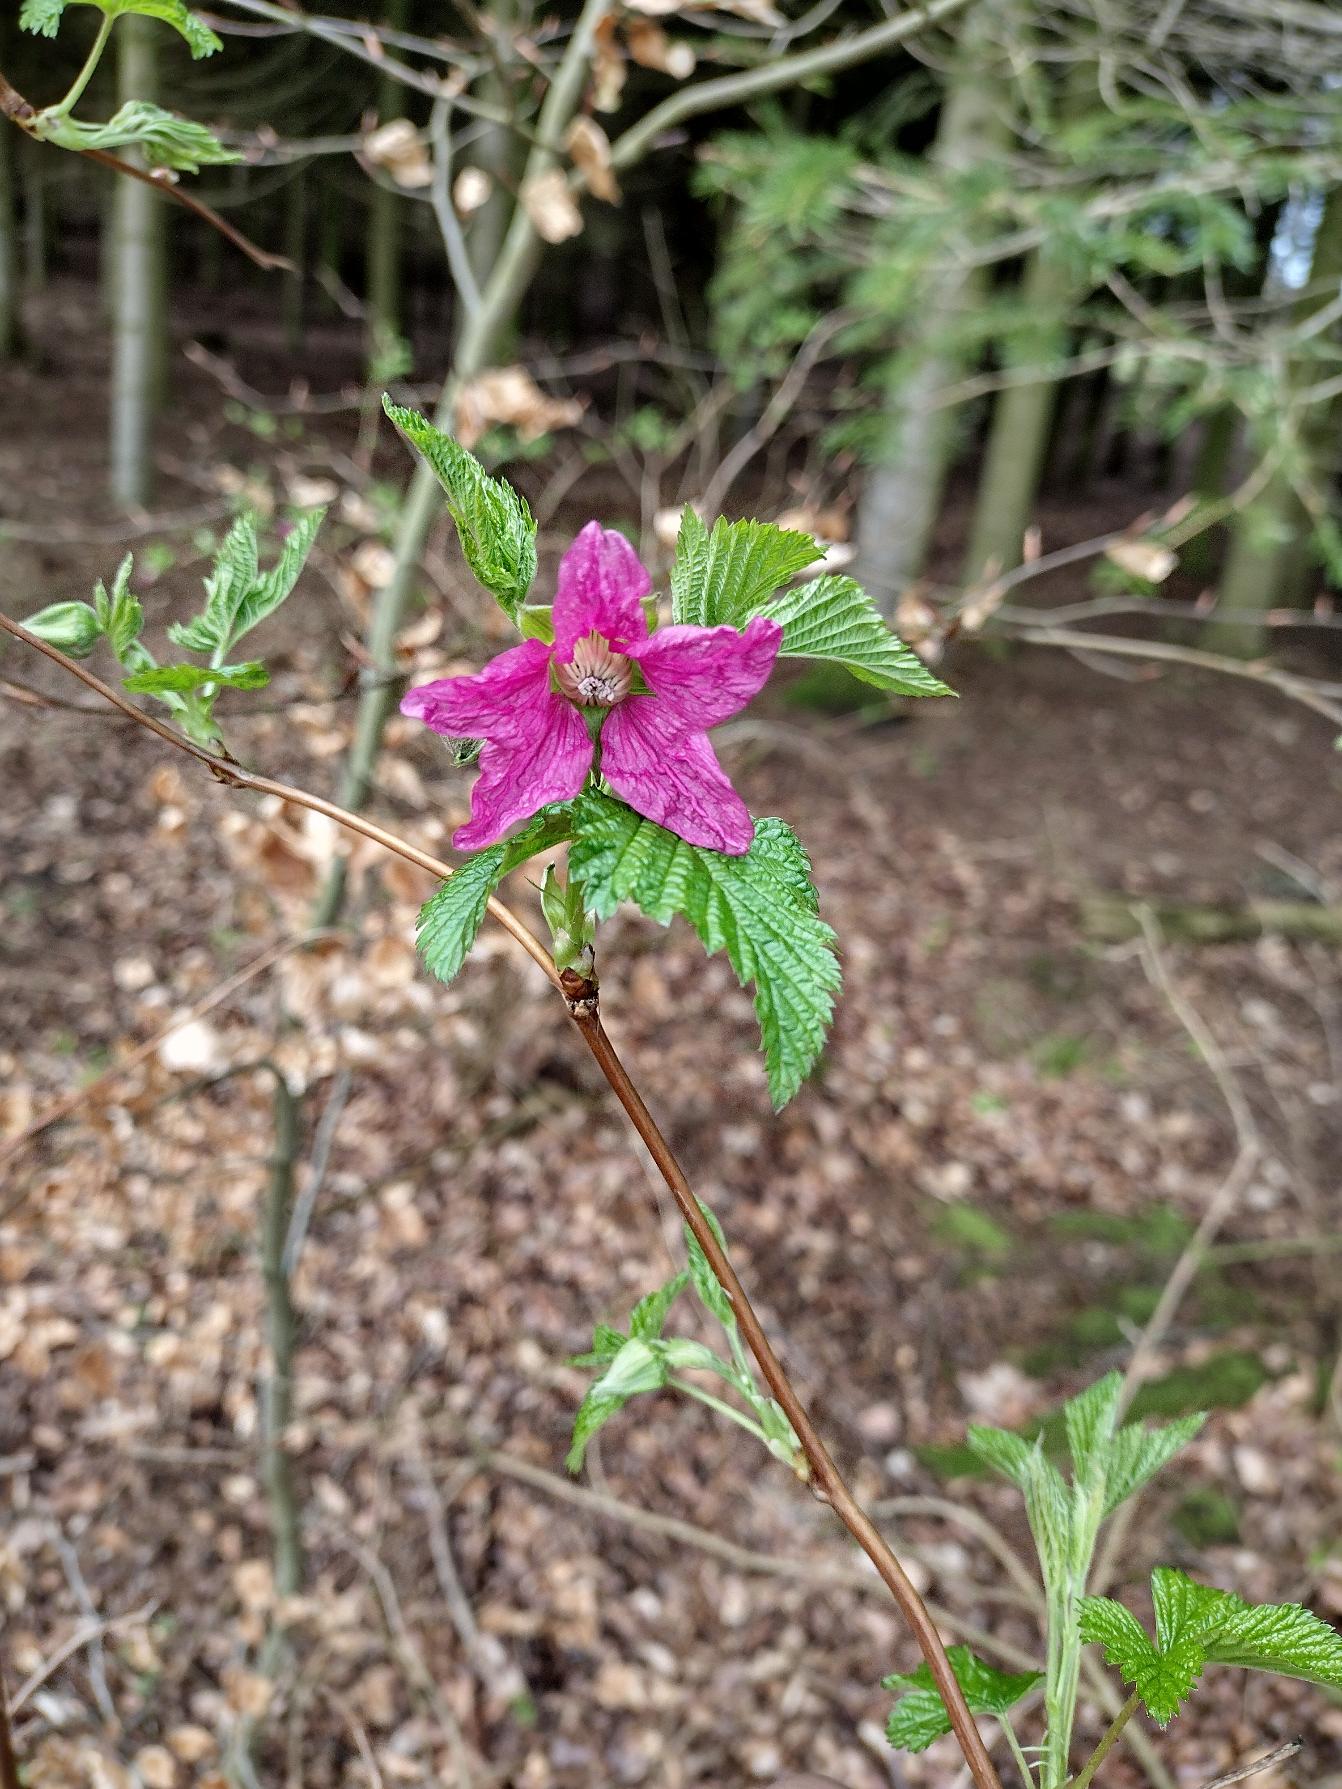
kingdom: Plantae
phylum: Tracheophyta
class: Magnoliopsida
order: Rosales
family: Rosaceae
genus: Rubus
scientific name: Rubus spectabilis
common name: Laksebær
